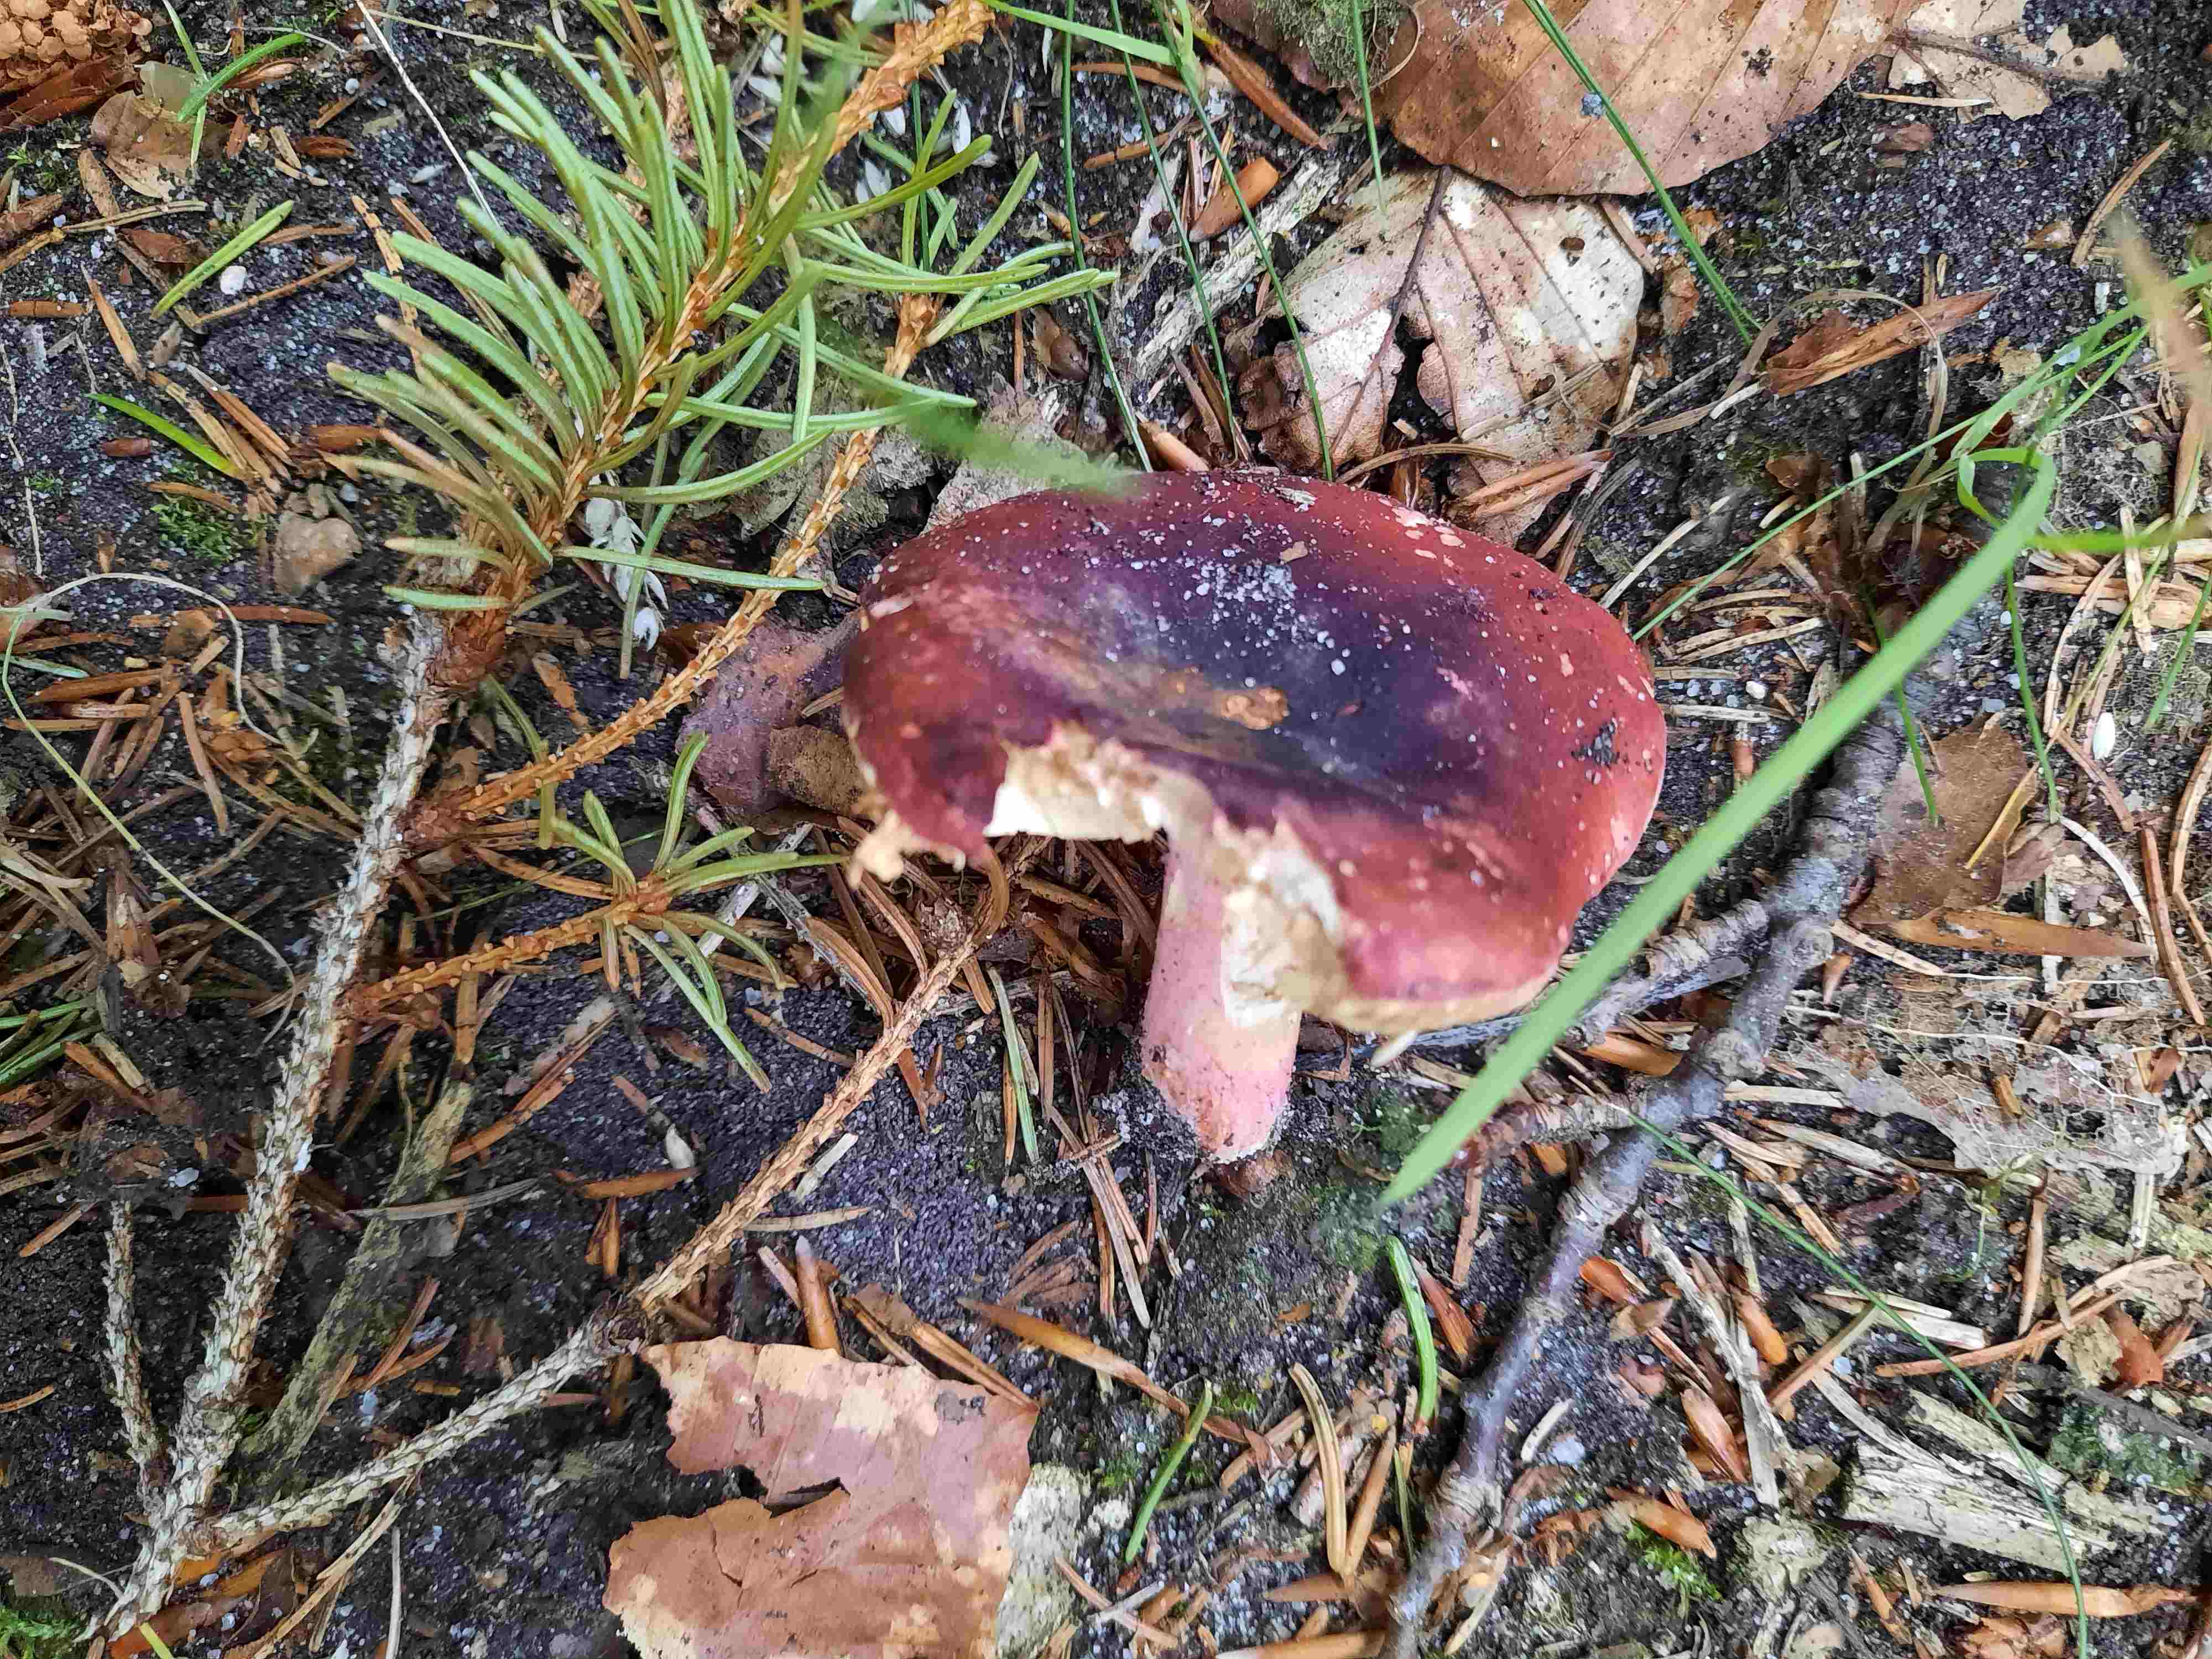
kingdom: Fungi
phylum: Basidiomycota
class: Agaricomycetes
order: Russulales
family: Russulaceae
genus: Russula
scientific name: Russula xerampelina
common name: hummer-skørhat
